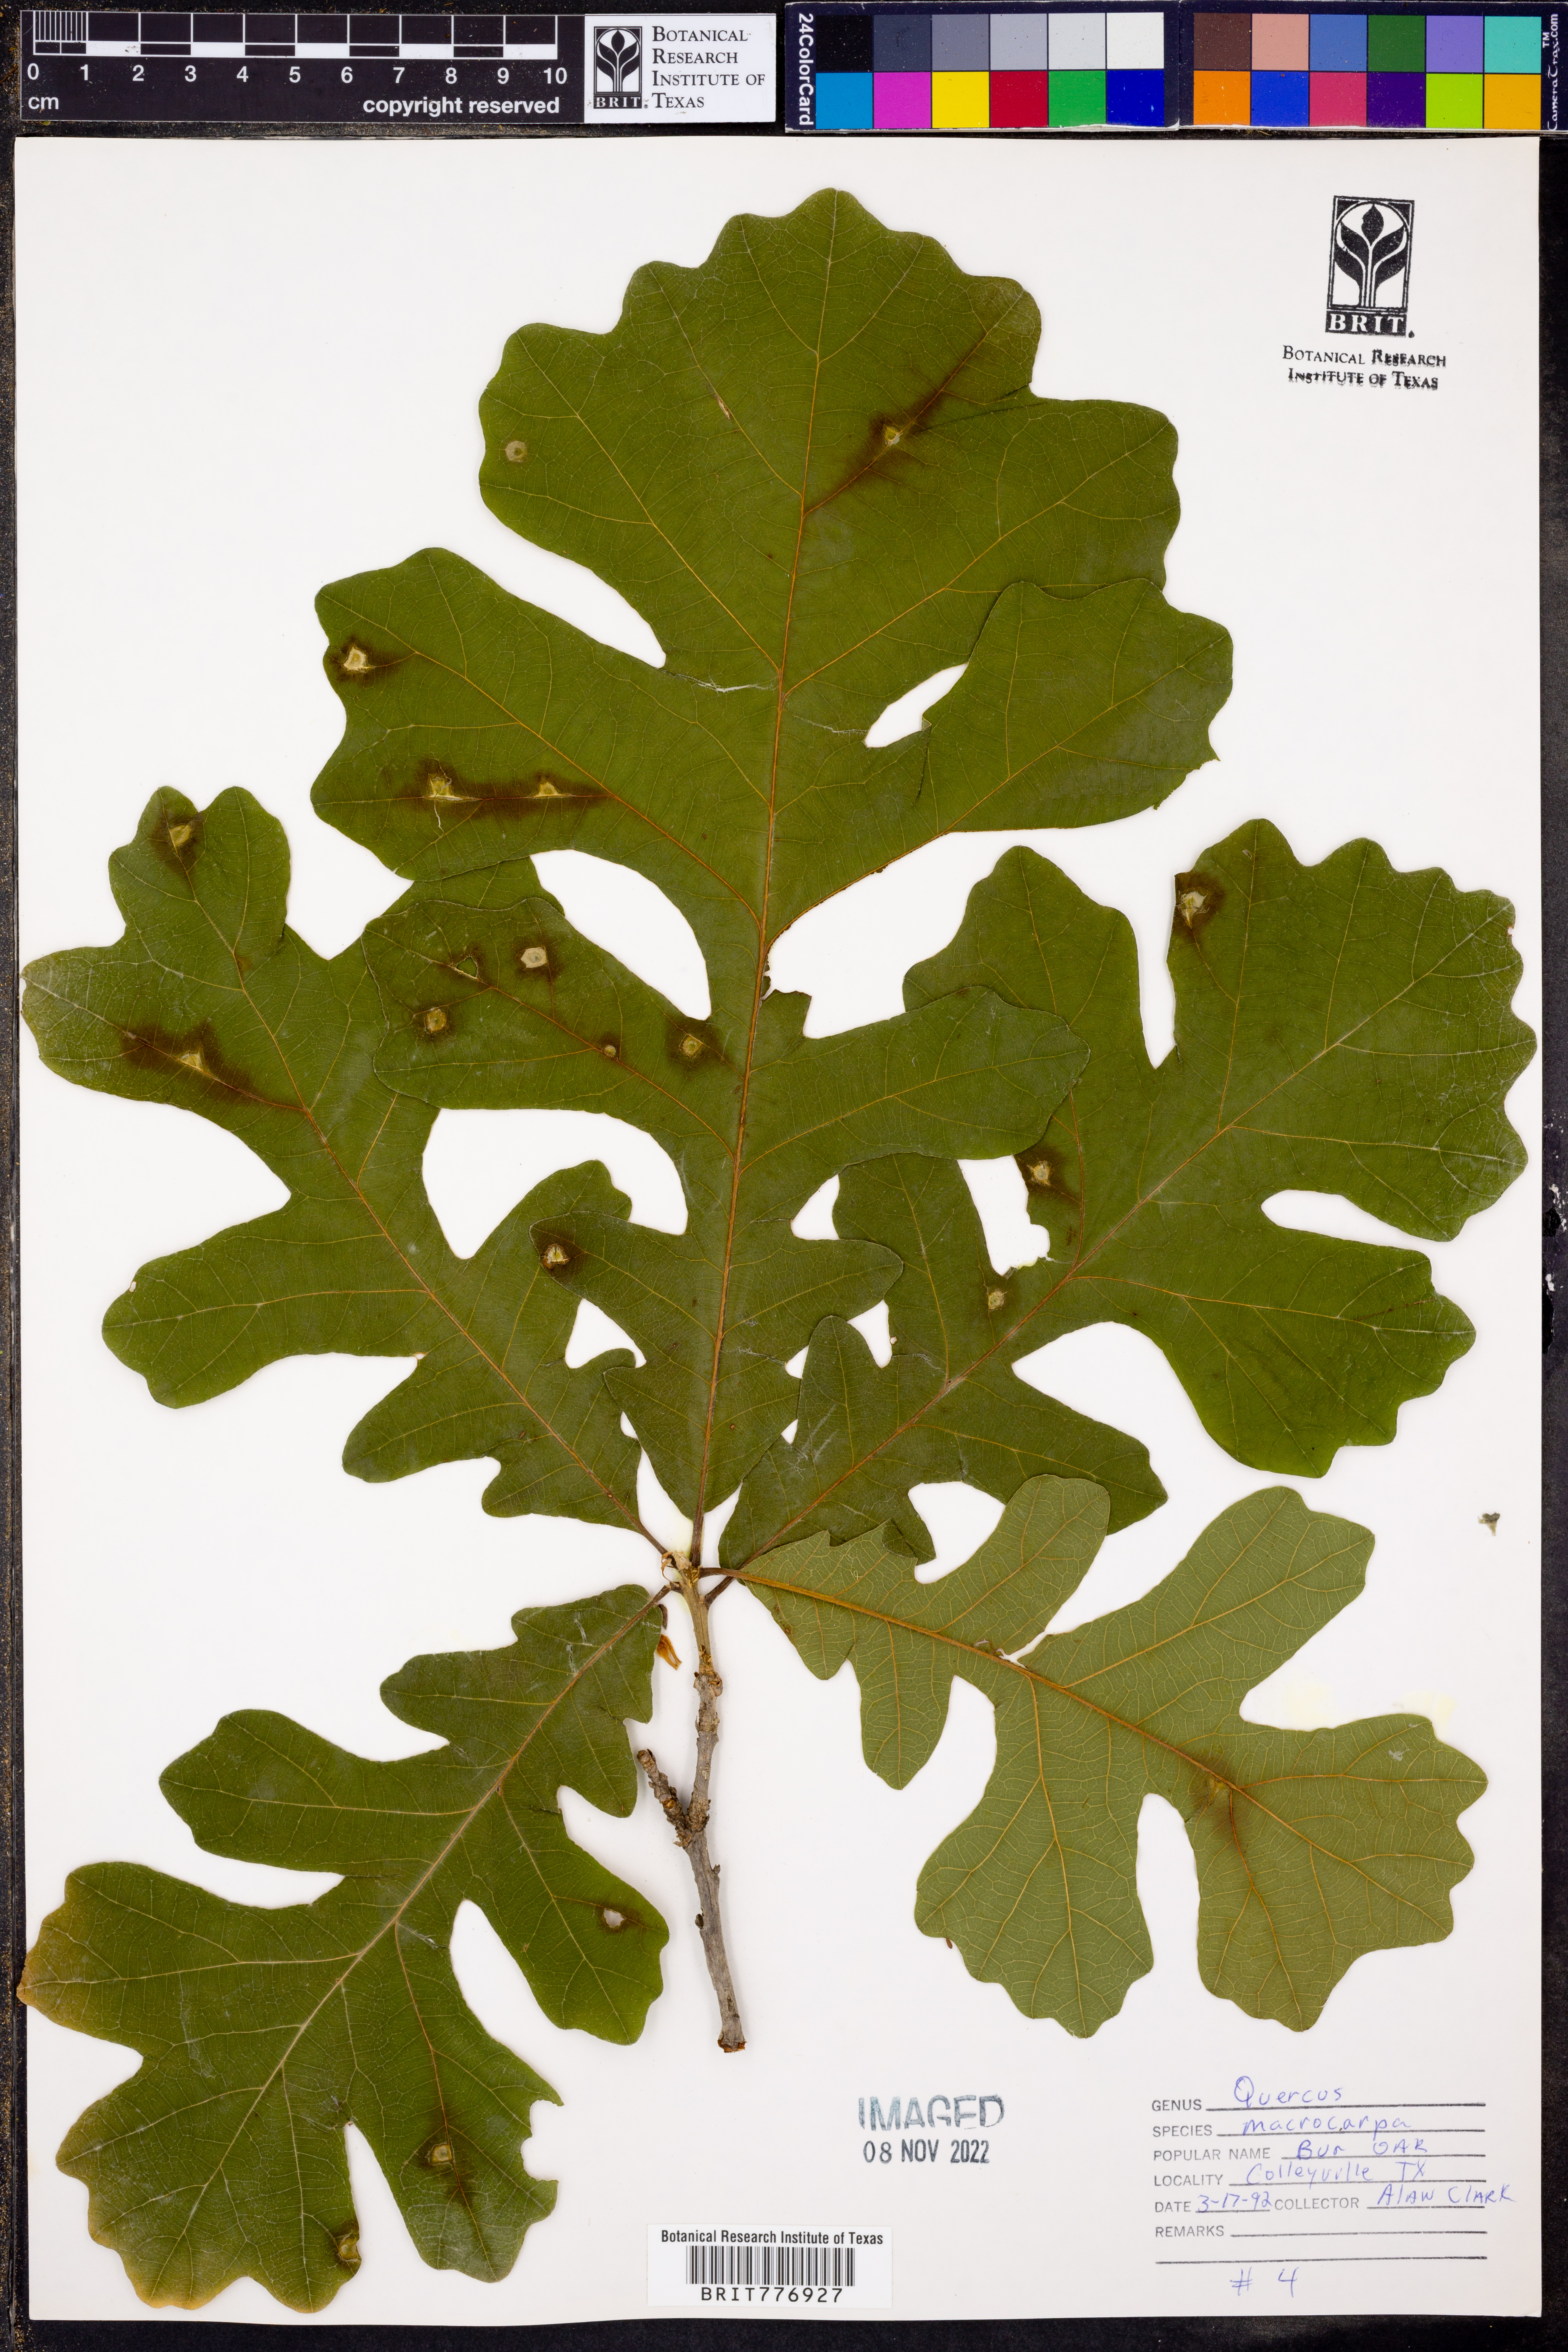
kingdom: Plantae
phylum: Tracheophyta
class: Magnoliopsida
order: Fagales
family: Fagaceae
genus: Quercus
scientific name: Quercus macrocarpa
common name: Bur oak
